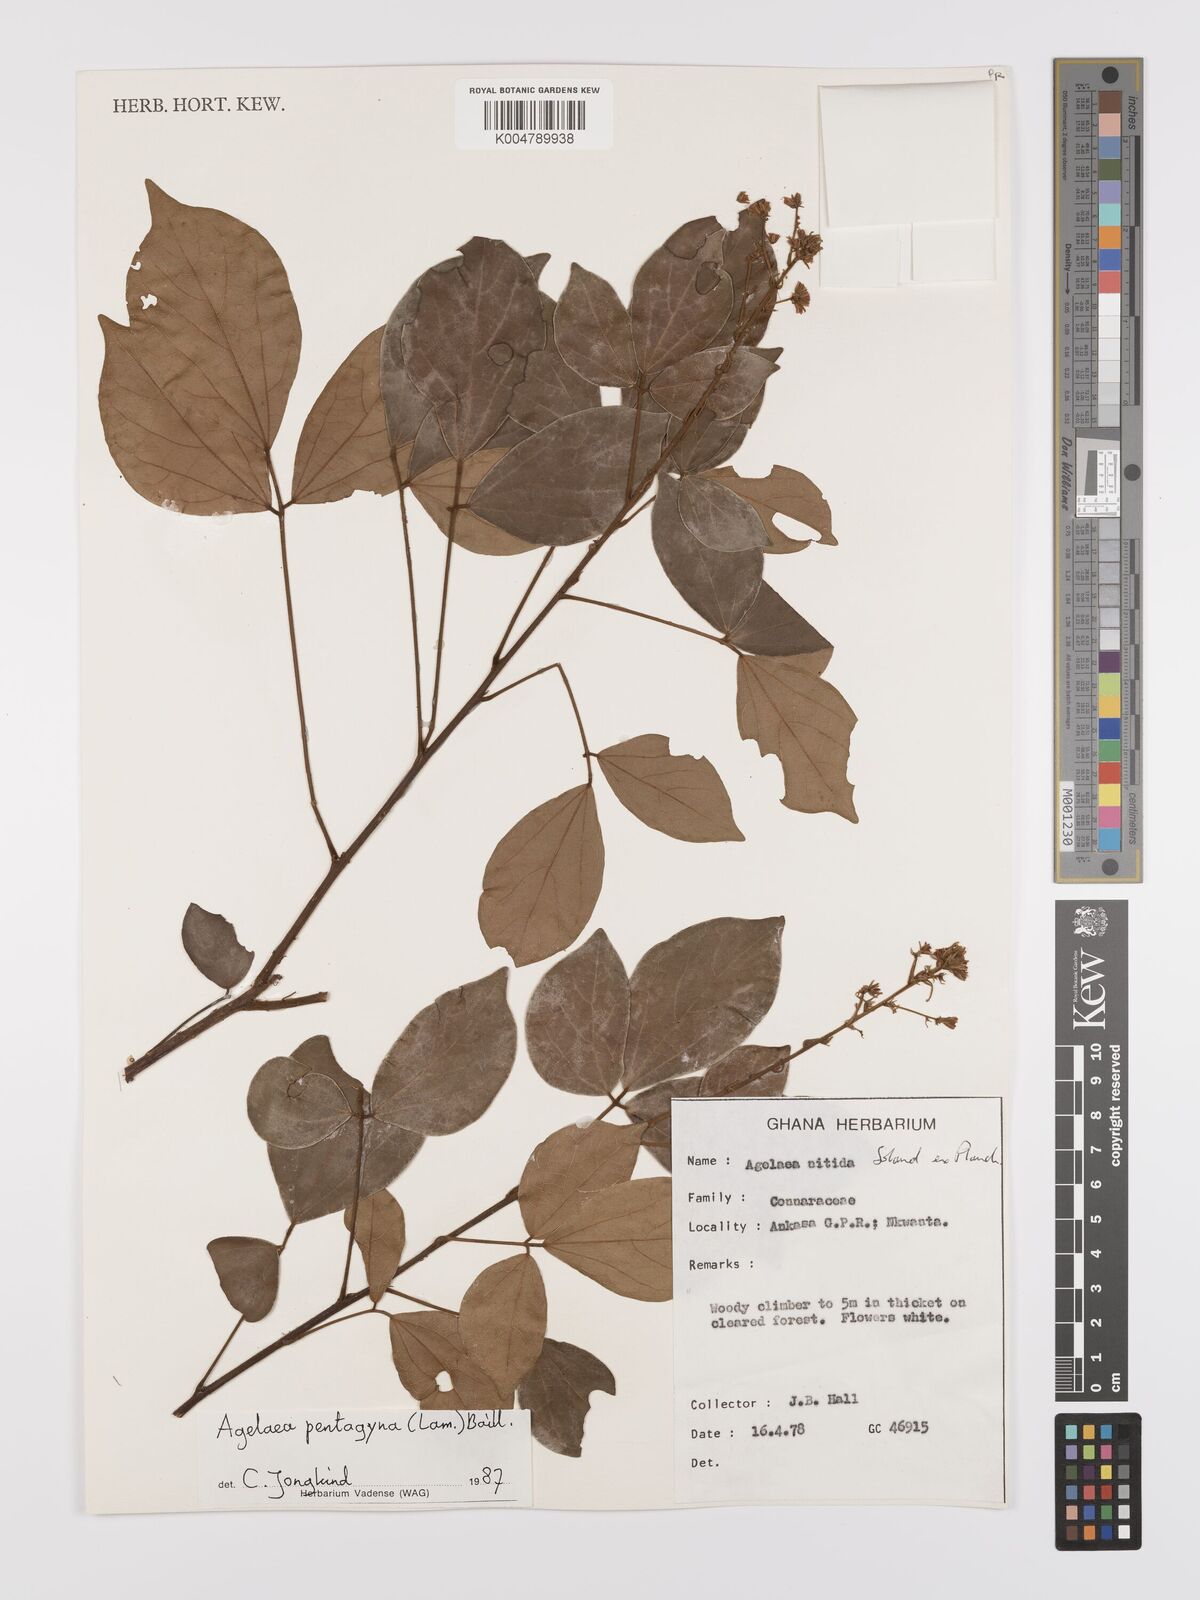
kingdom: Plantae
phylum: Tracheophyta
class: Magnoliopsida
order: Oxalidales
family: Connaraceae
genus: Agelaea
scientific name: Agelaea pentagyna
